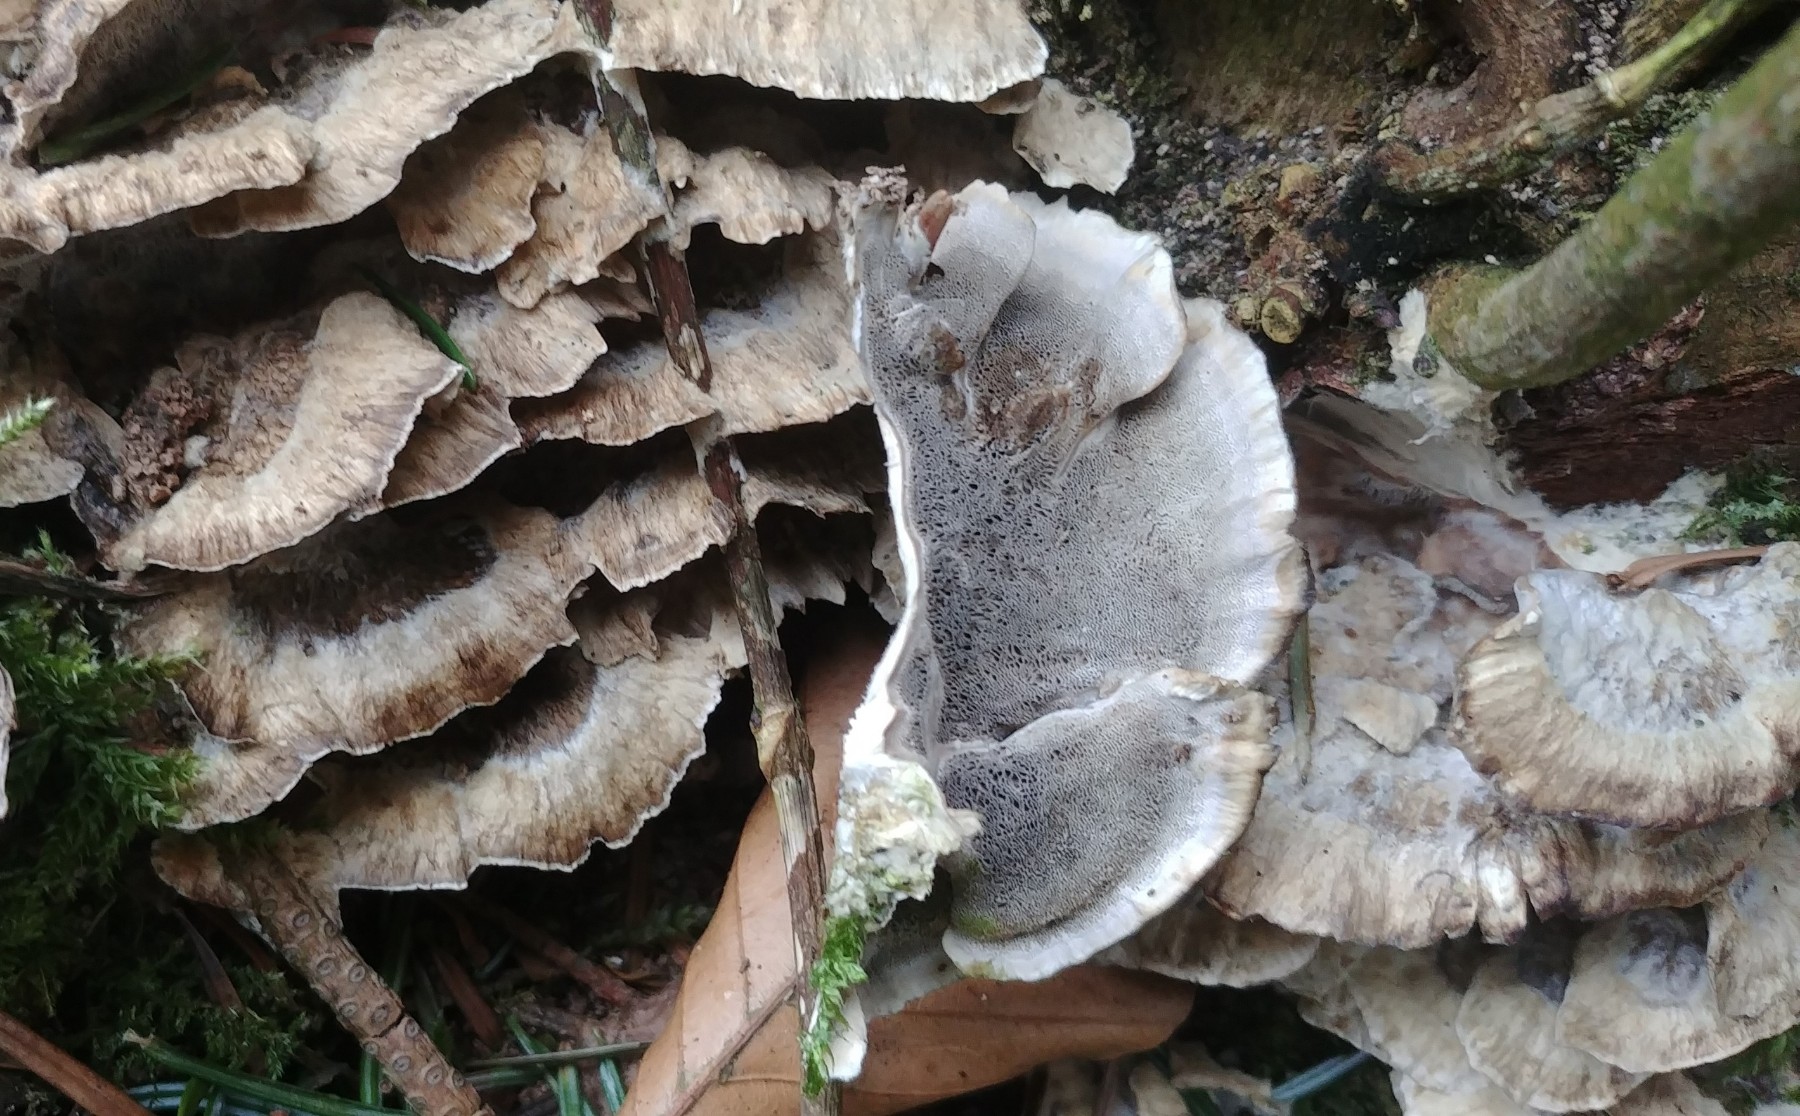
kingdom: Fungi
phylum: Basidiomycota
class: Agaricomycetes
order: Polyporales
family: Phanerochaetaceae
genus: Bjerkandera
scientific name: Bjerkandera adusta
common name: sveden sodporesvamp
